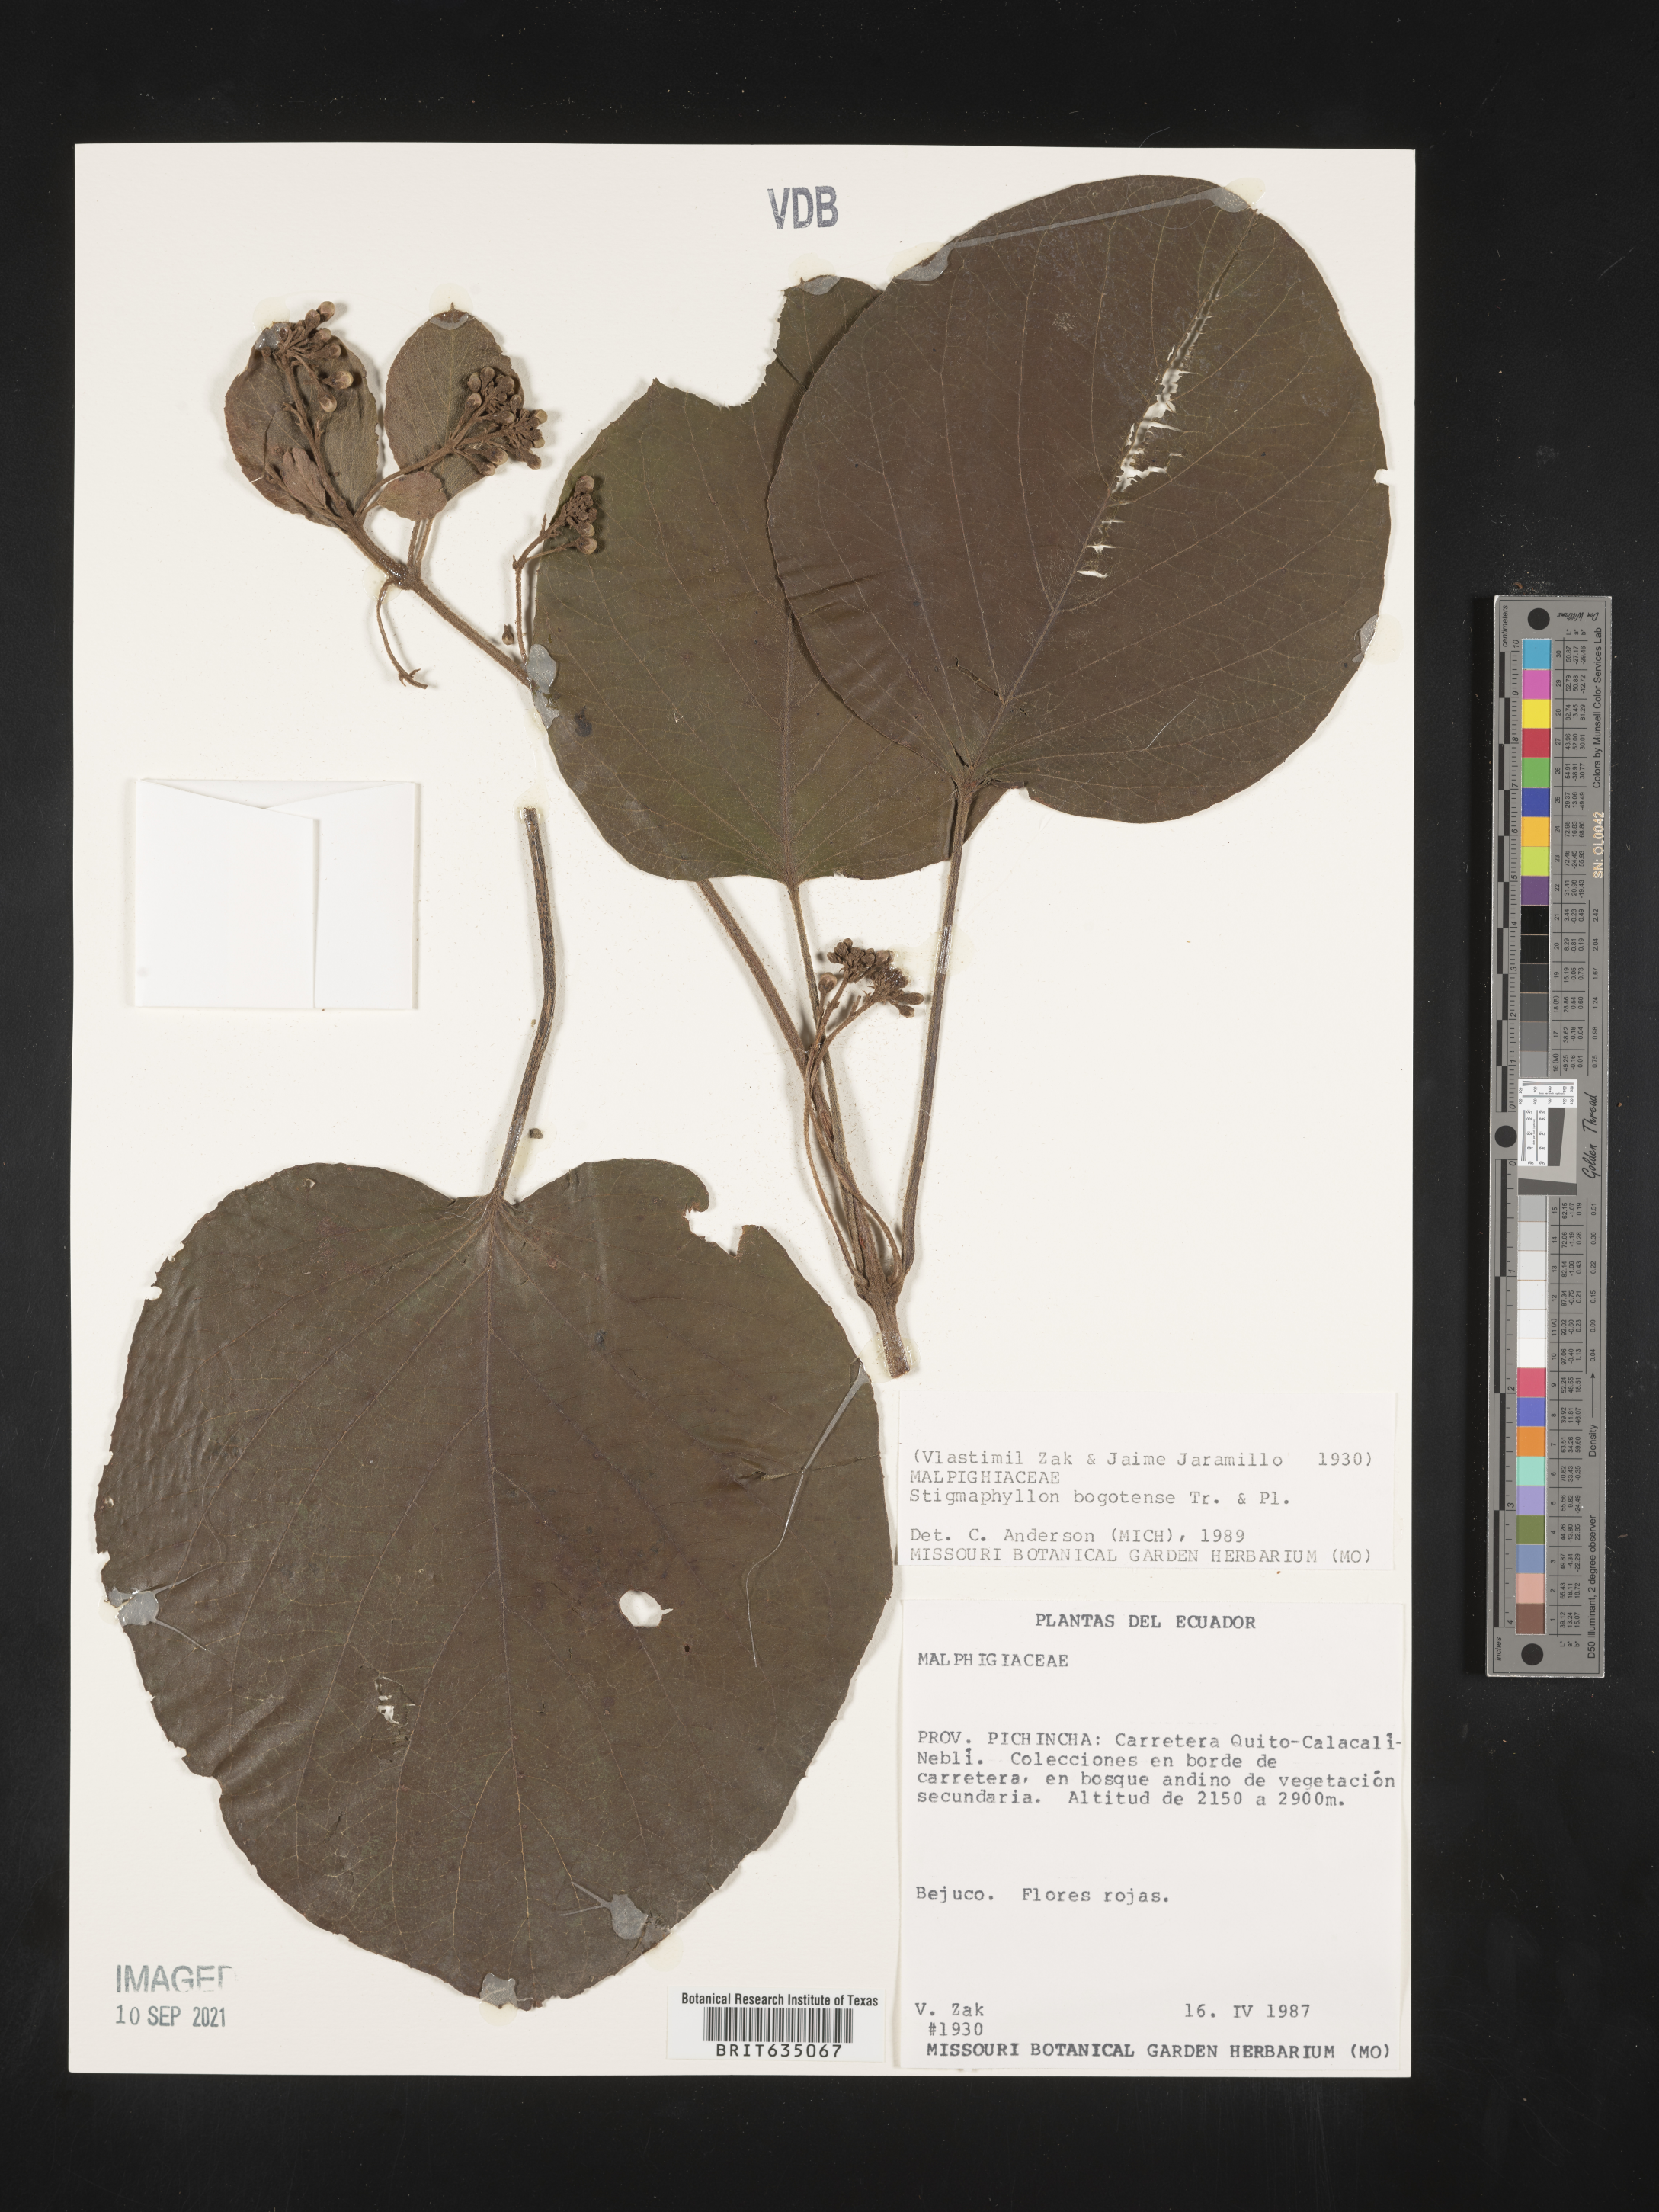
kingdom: Plantae
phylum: Tracheophyta
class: Magnoliopsida
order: Malpighiales
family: Malpighiaceae
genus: Stigmaphyllon
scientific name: Stigmaphyllon
